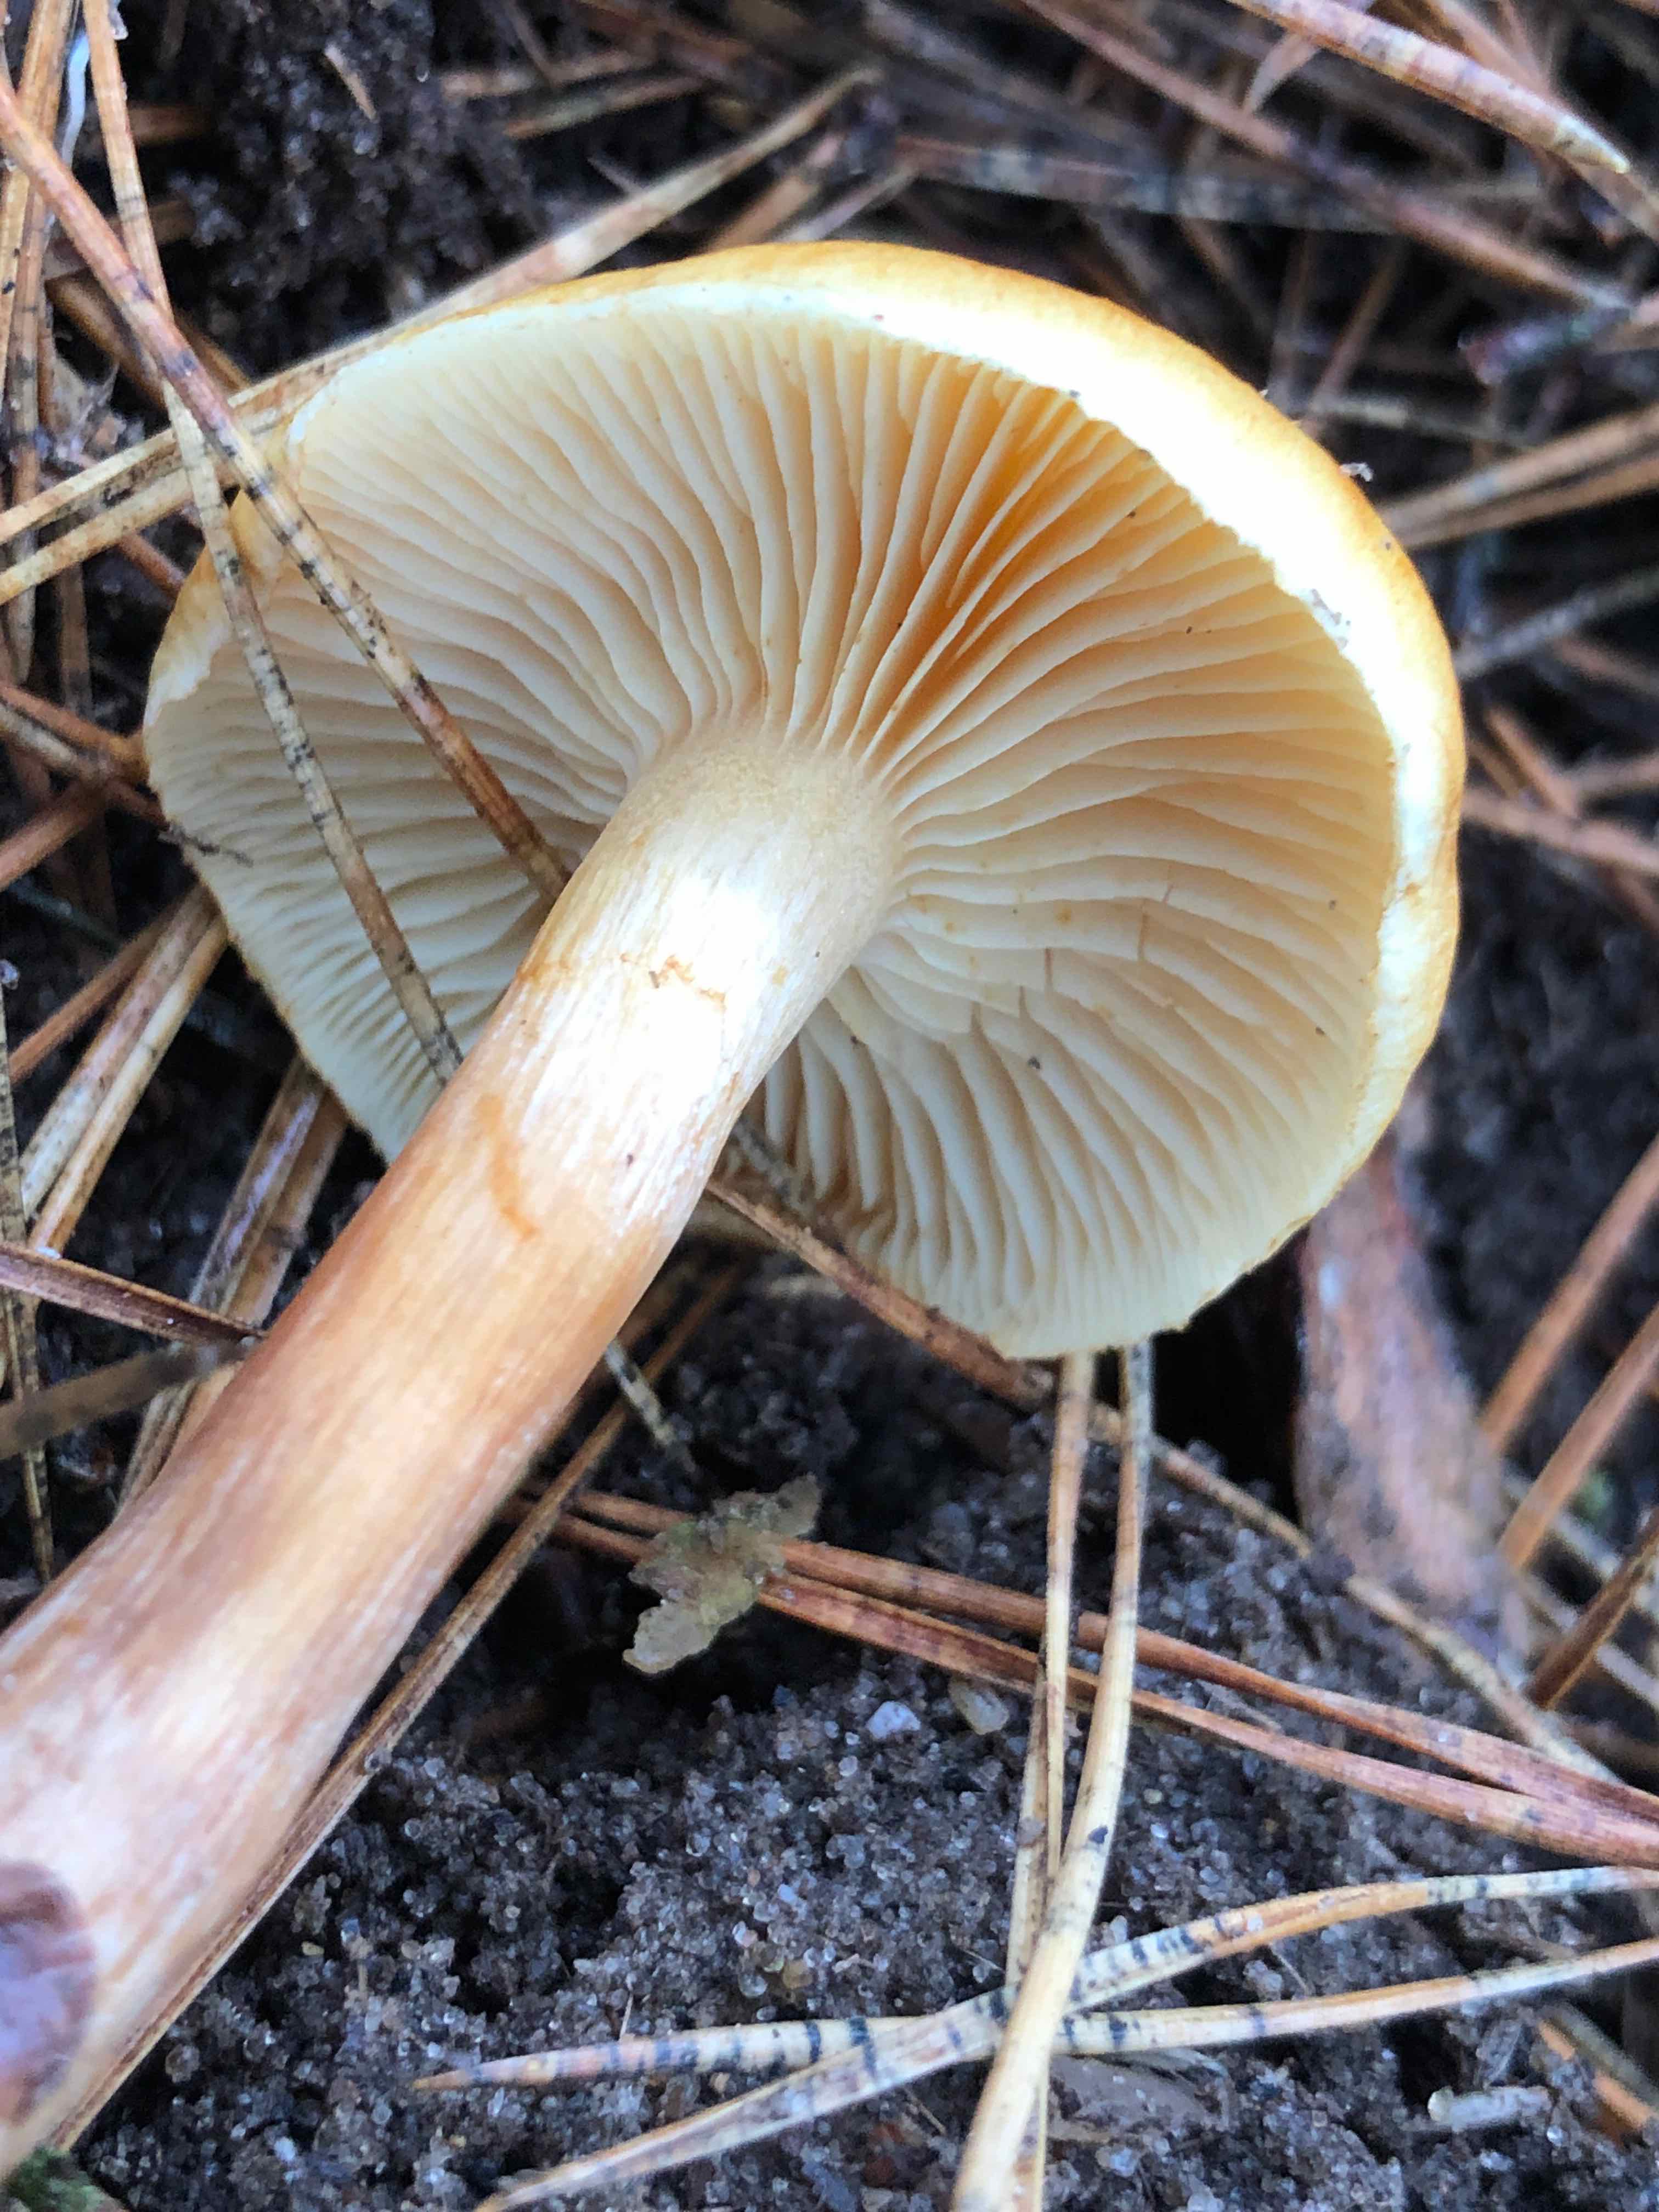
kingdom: Fungi
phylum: Basidiomycota
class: Agaricomycetes
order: Agaricales
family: Hymenogastraceae
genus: Gymnopilus
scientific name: Gymnopilus penetrans
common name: plettet flammehat
